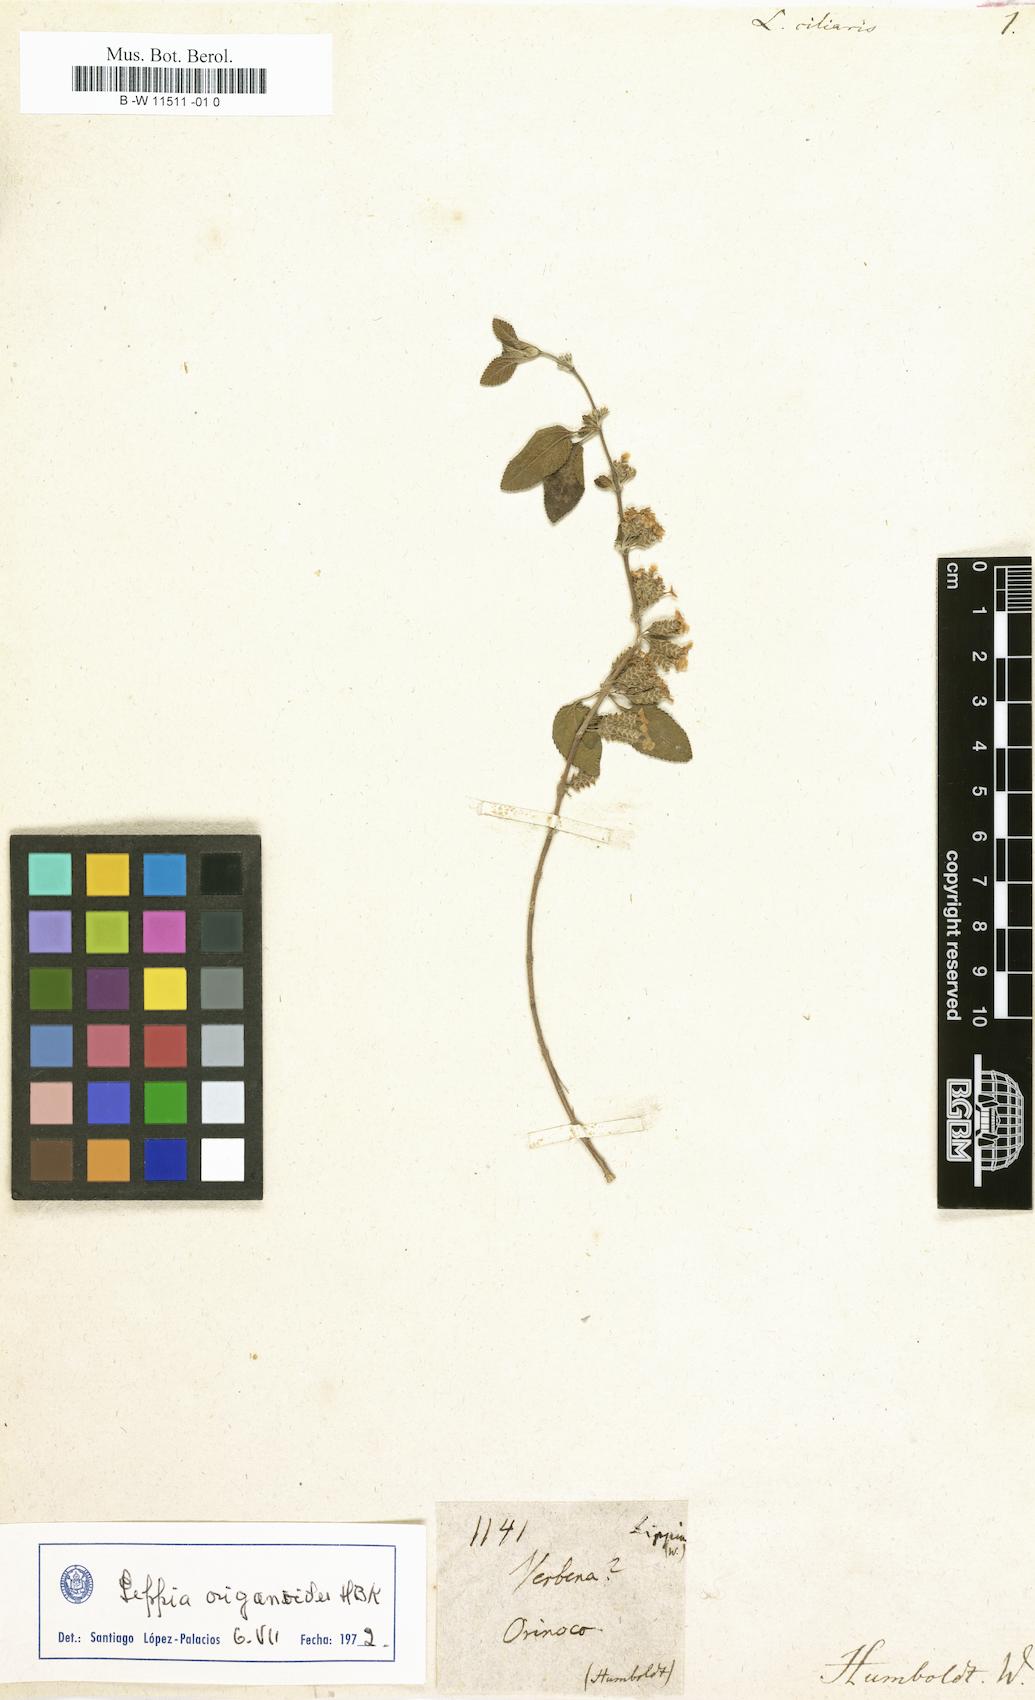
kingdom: Plantae
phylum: Tracheophyta
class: Magnoliopsida
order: Lamiales
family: Verbenaceae
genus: Lantana
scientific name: Lantana
